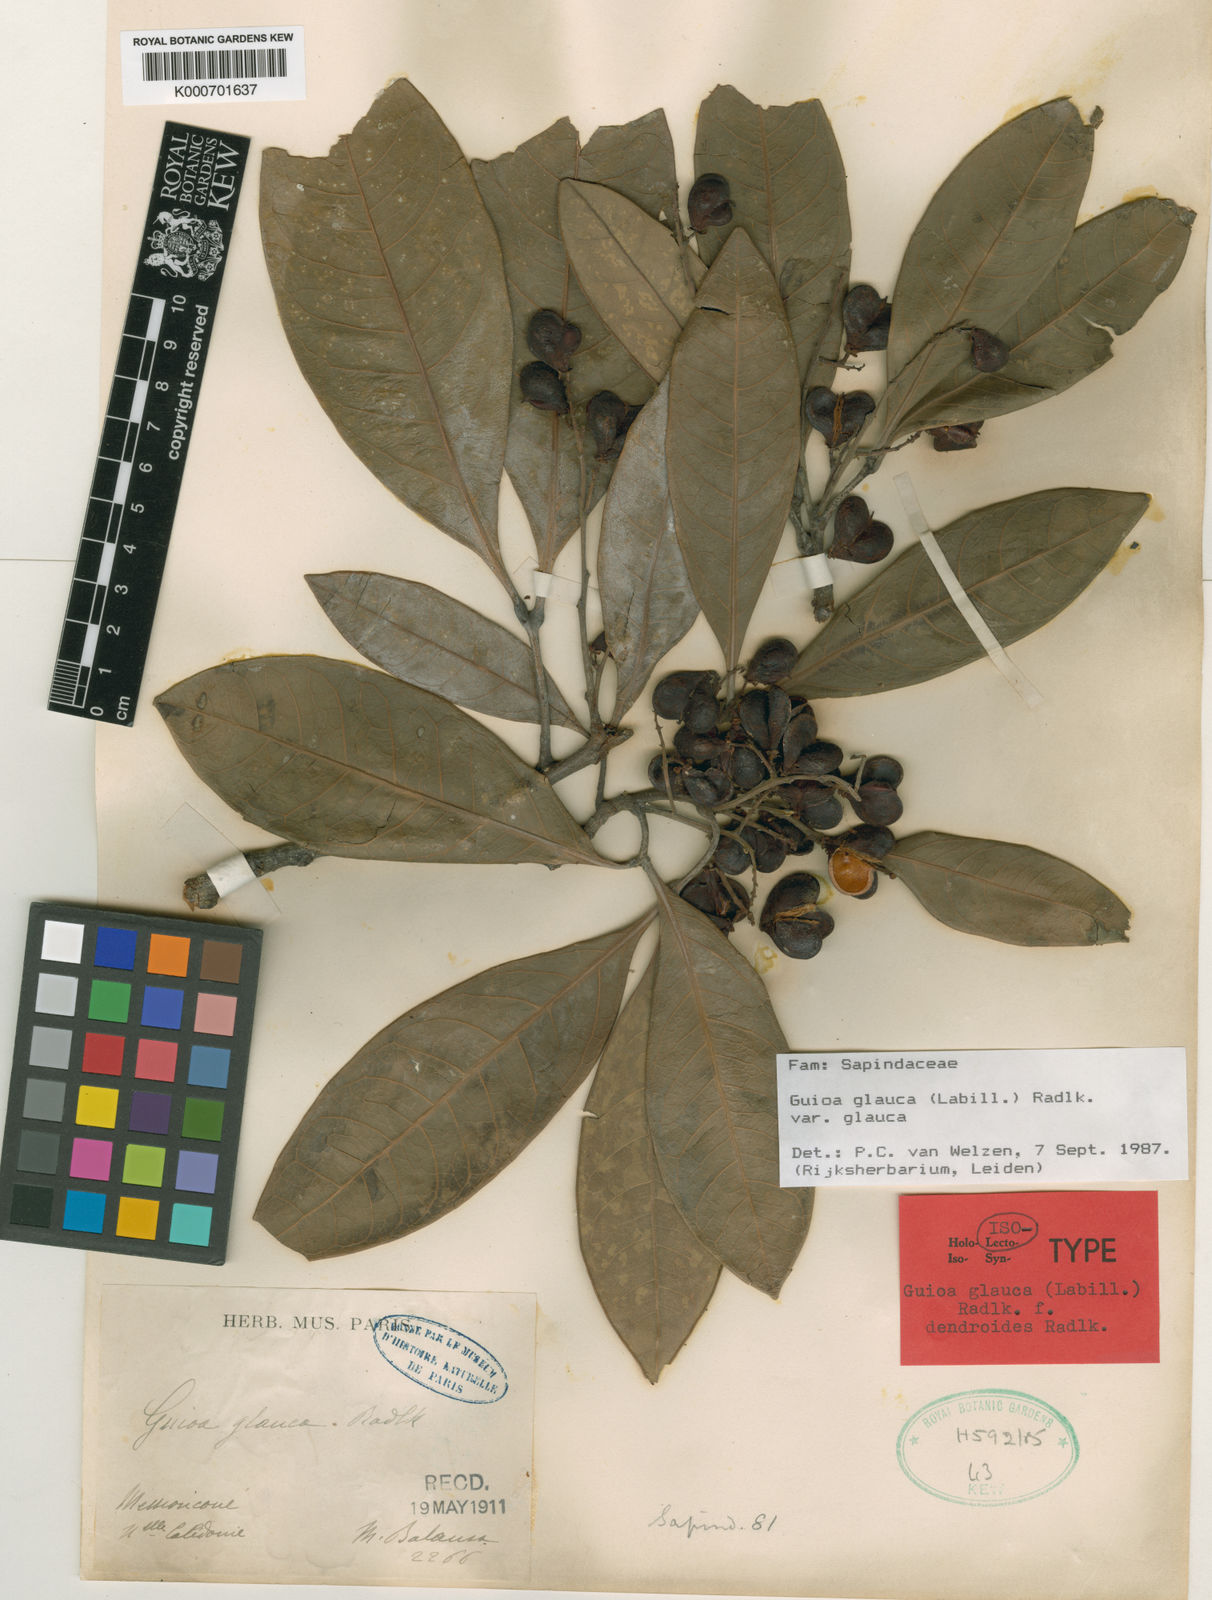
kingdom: Plantae
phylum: Tracheophyta
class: Magnoliopsida
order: Sapindales
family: Sapindaceae
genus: Guioa
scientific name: Guioa glauca
